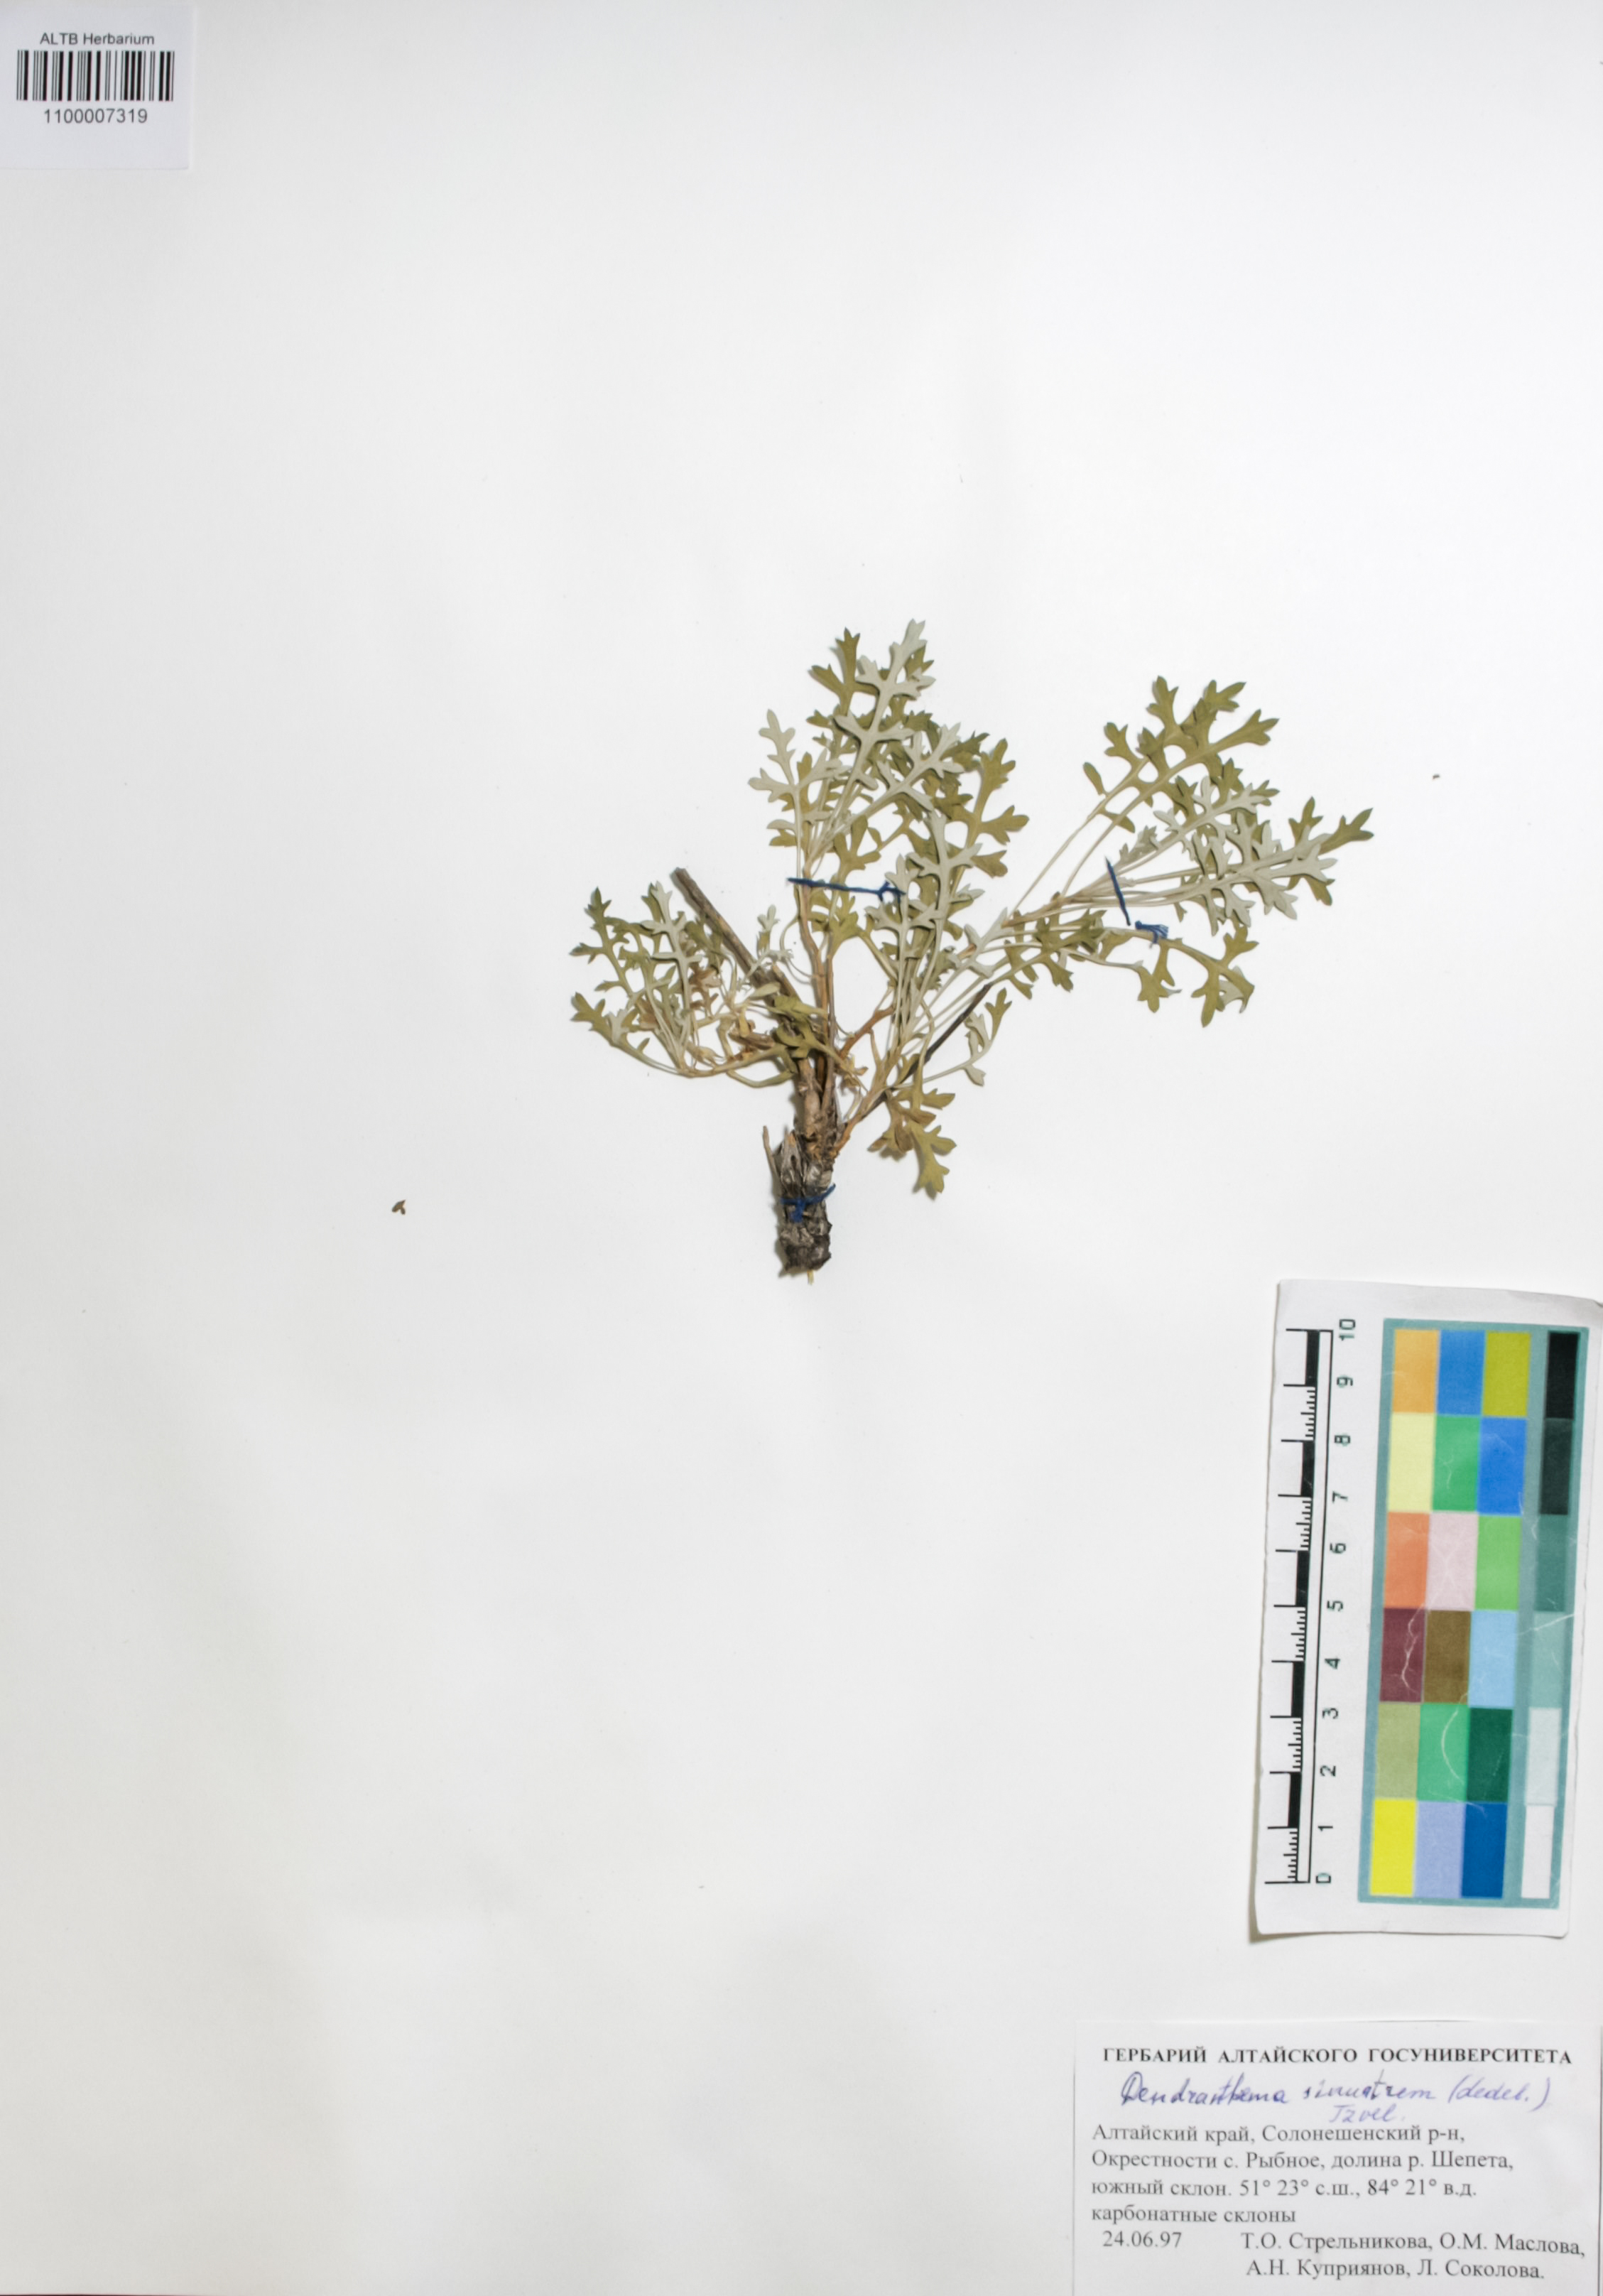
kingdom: Plantae
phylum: Tracheophyta
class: Magnoliopsida
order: Asterales
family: Asteraceae
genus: Chrysanthemum
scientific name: Chrysanthemum sinuatum
